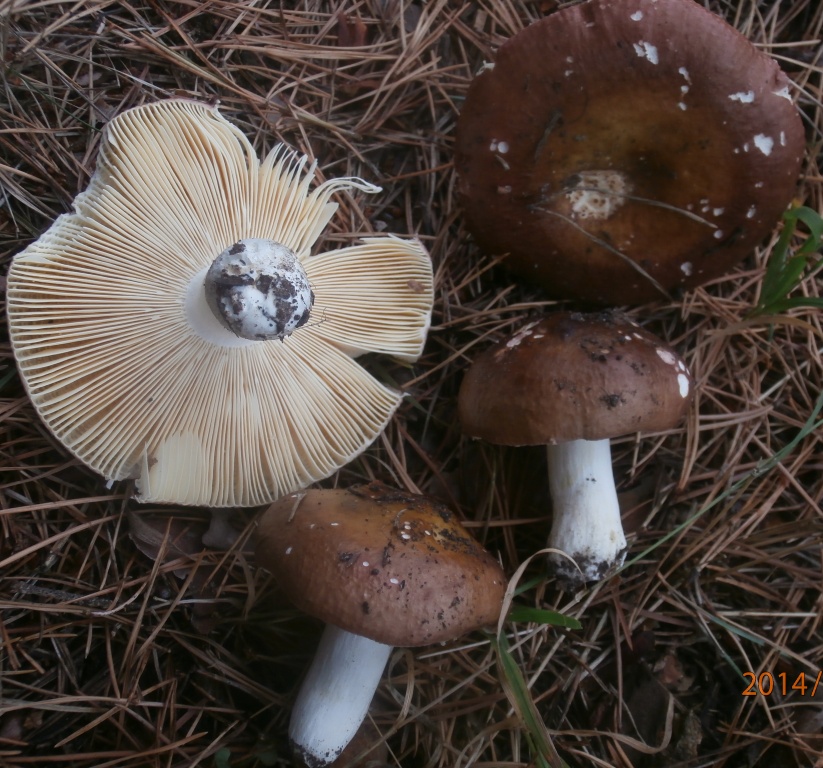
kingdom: Fungi
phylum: Basidiomycota
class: Agaricomycetes
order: Russulales
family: Russulaceae
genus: Russula
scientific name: Russula cessans
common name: fyrre-skørhat
